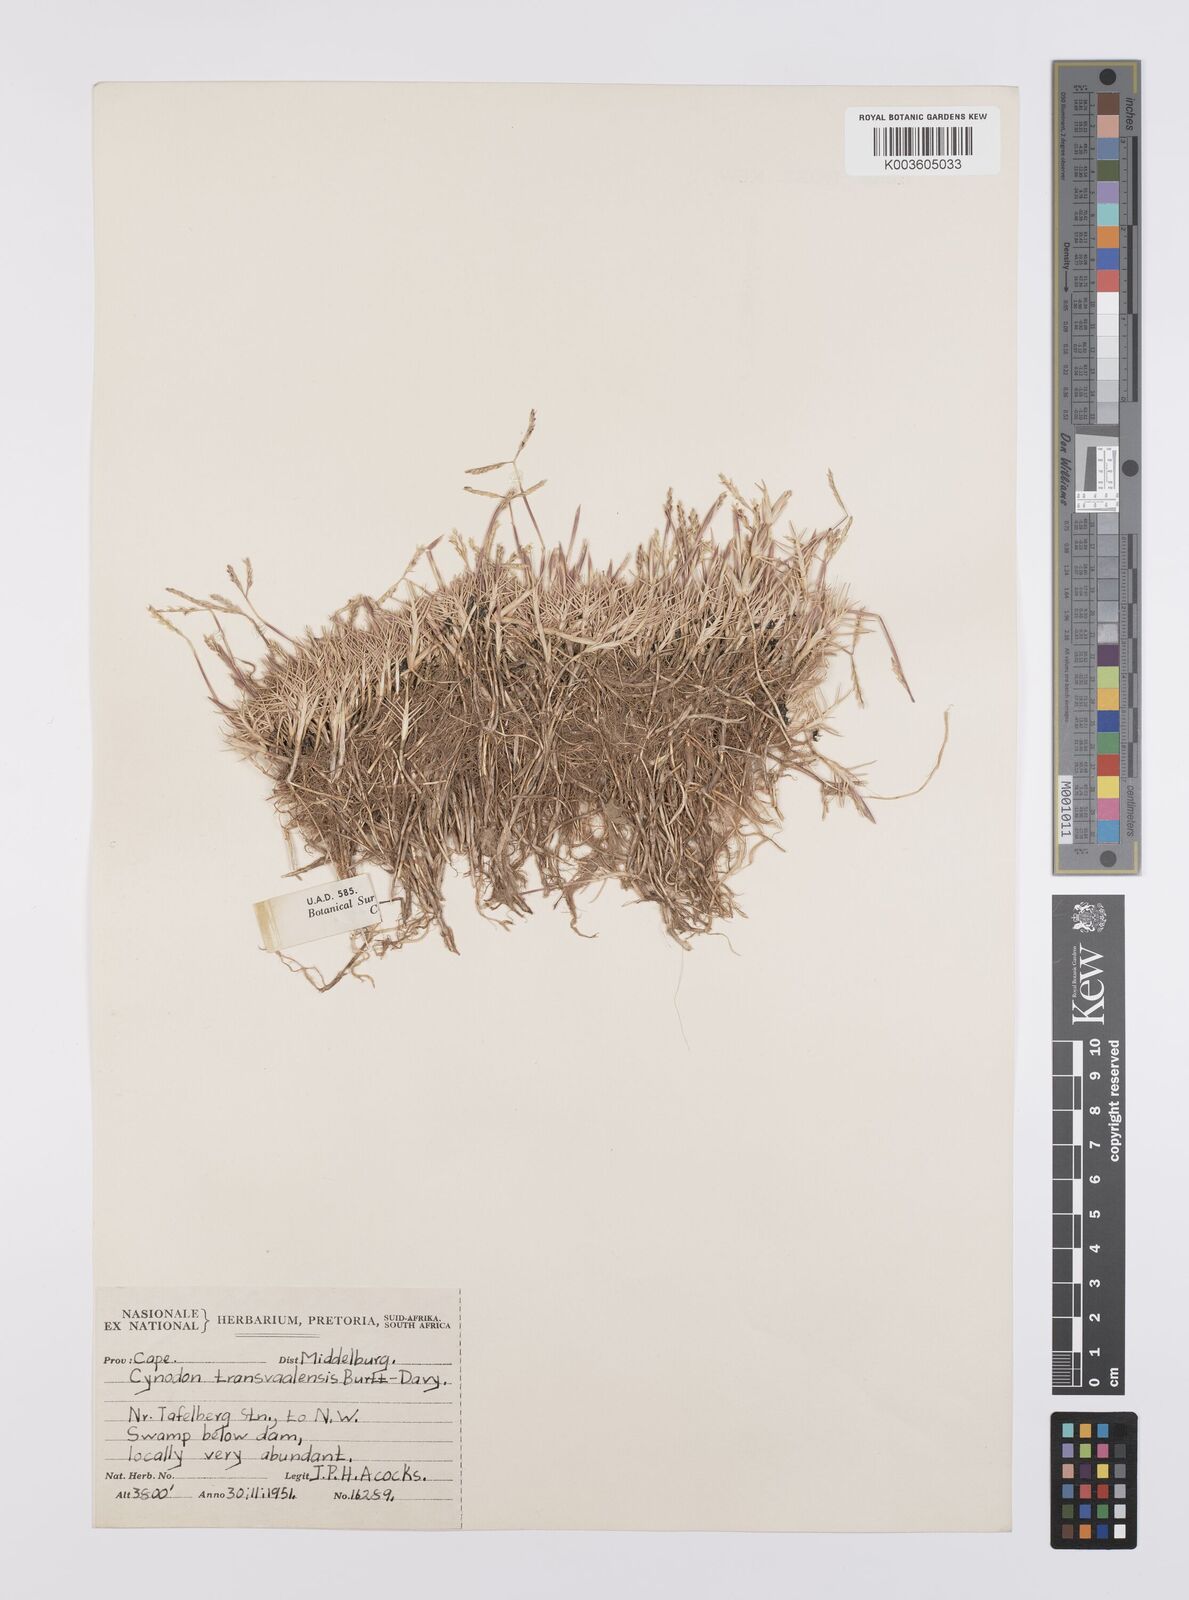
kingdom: Plantae
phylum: Tracheophyta
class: Liliopsida
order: Poales
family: Poaceae
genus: Cynodon
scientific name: Cynodon transvaalensis
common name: African bermuda grass
